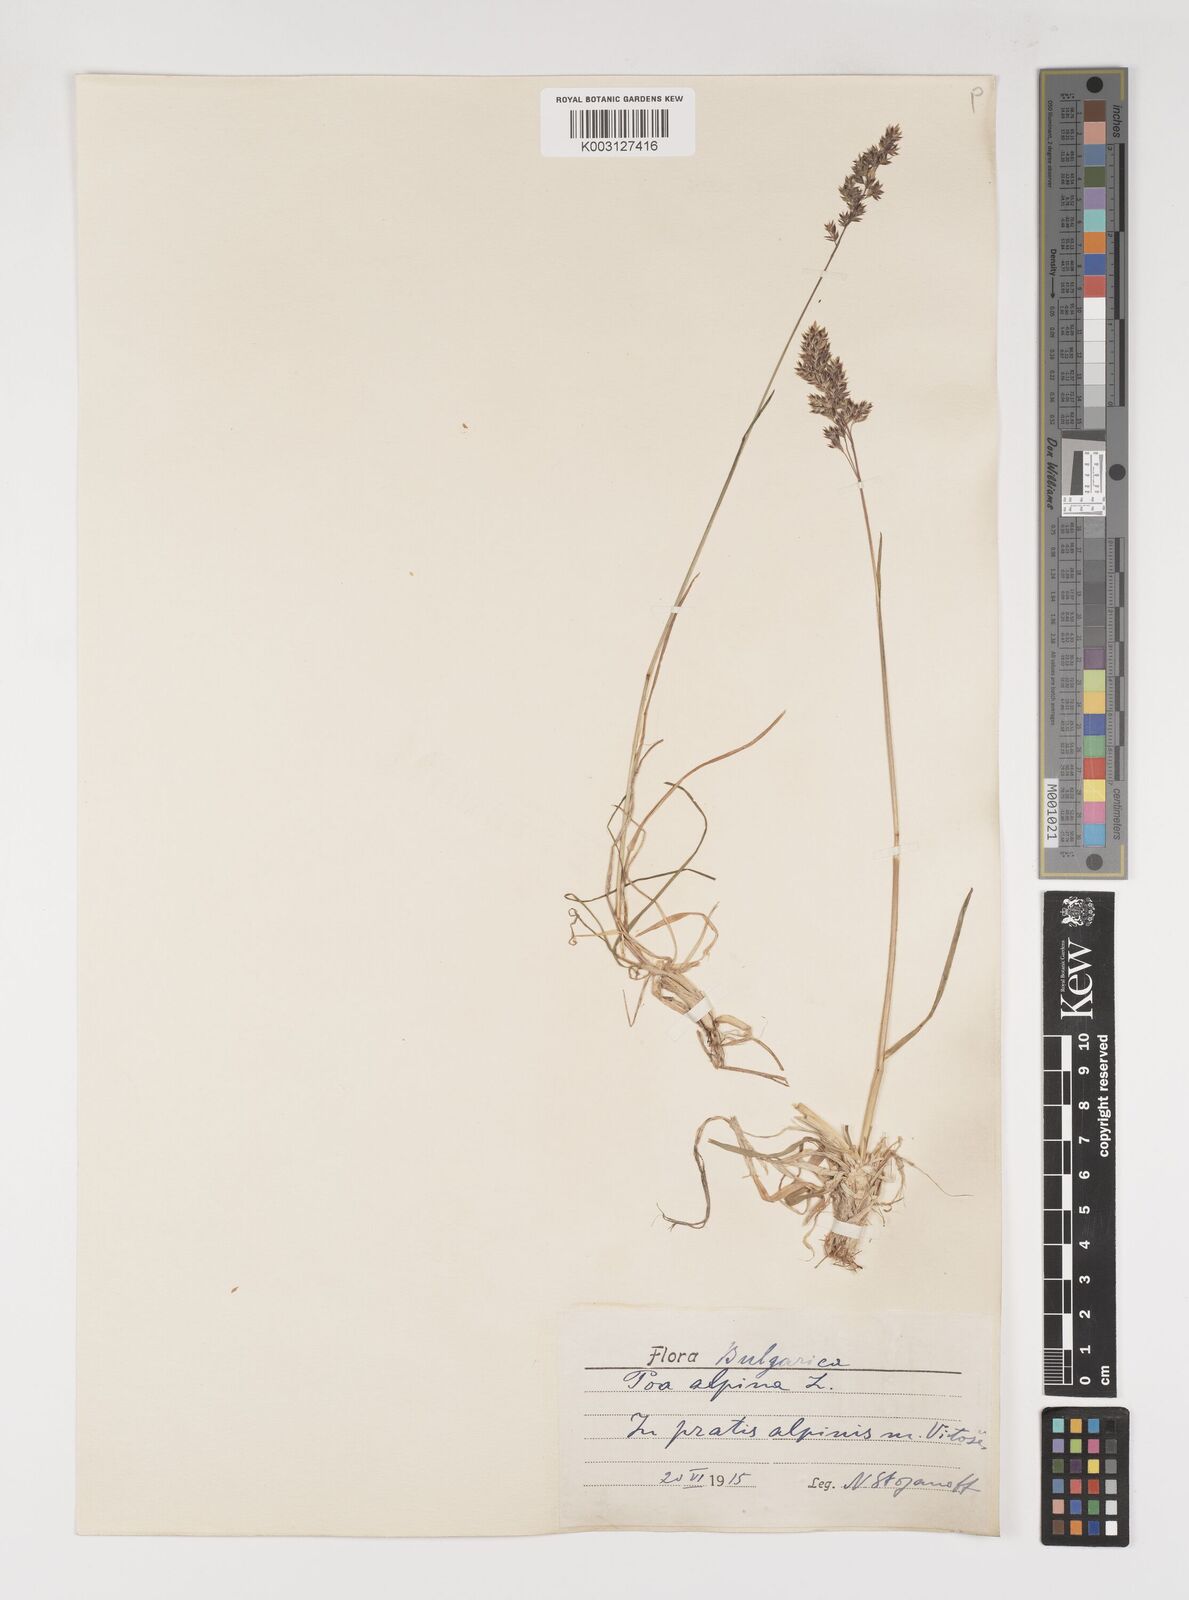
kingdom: Plantae
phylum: Tracheophyta
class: Liliopsida
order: Poales
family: Poaceae
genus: Poa
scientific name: Poa alpina
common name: Alpine bluegrass
